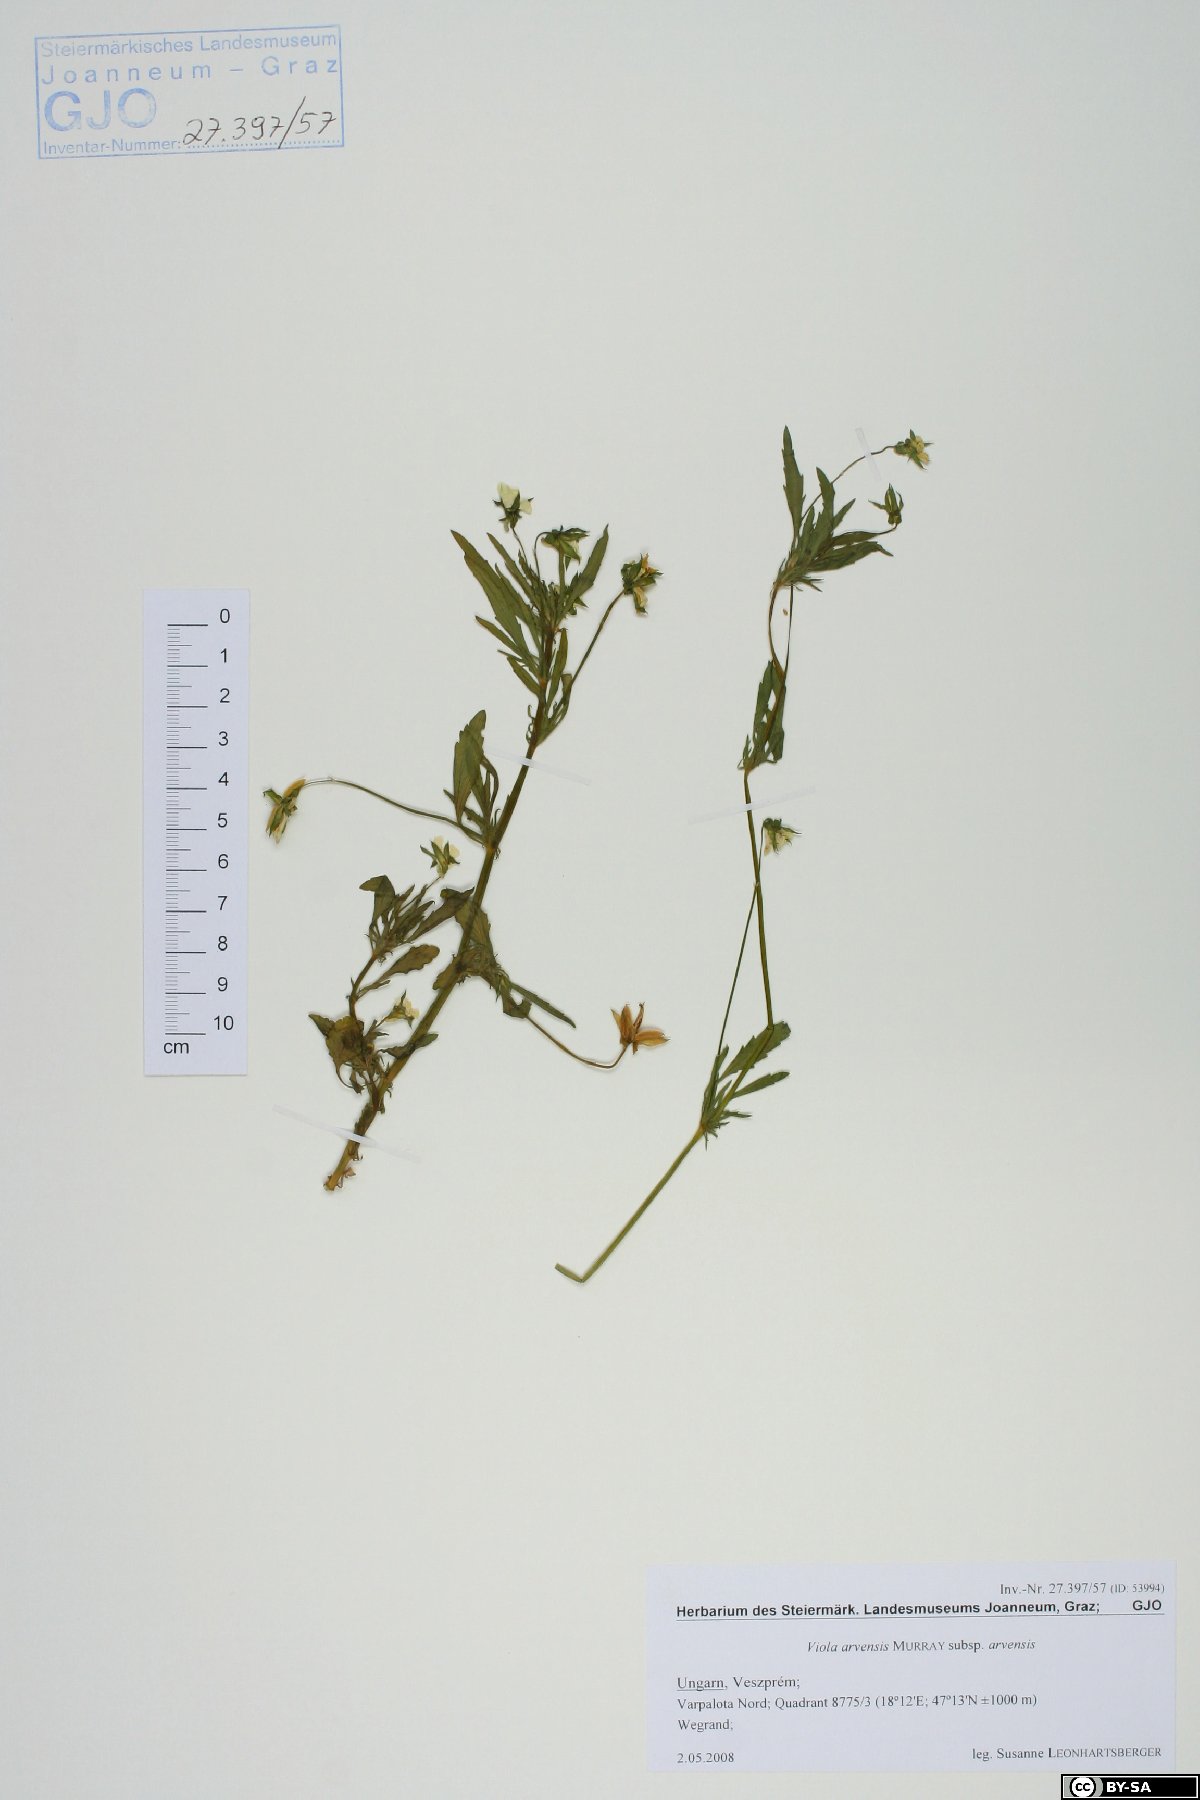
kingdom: Plantae
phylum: Tracheophyta
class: Magnoliopsida
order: Malpighiales
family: Violaceae
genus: Viola
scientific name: Viola arvensis
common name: Field pansy
